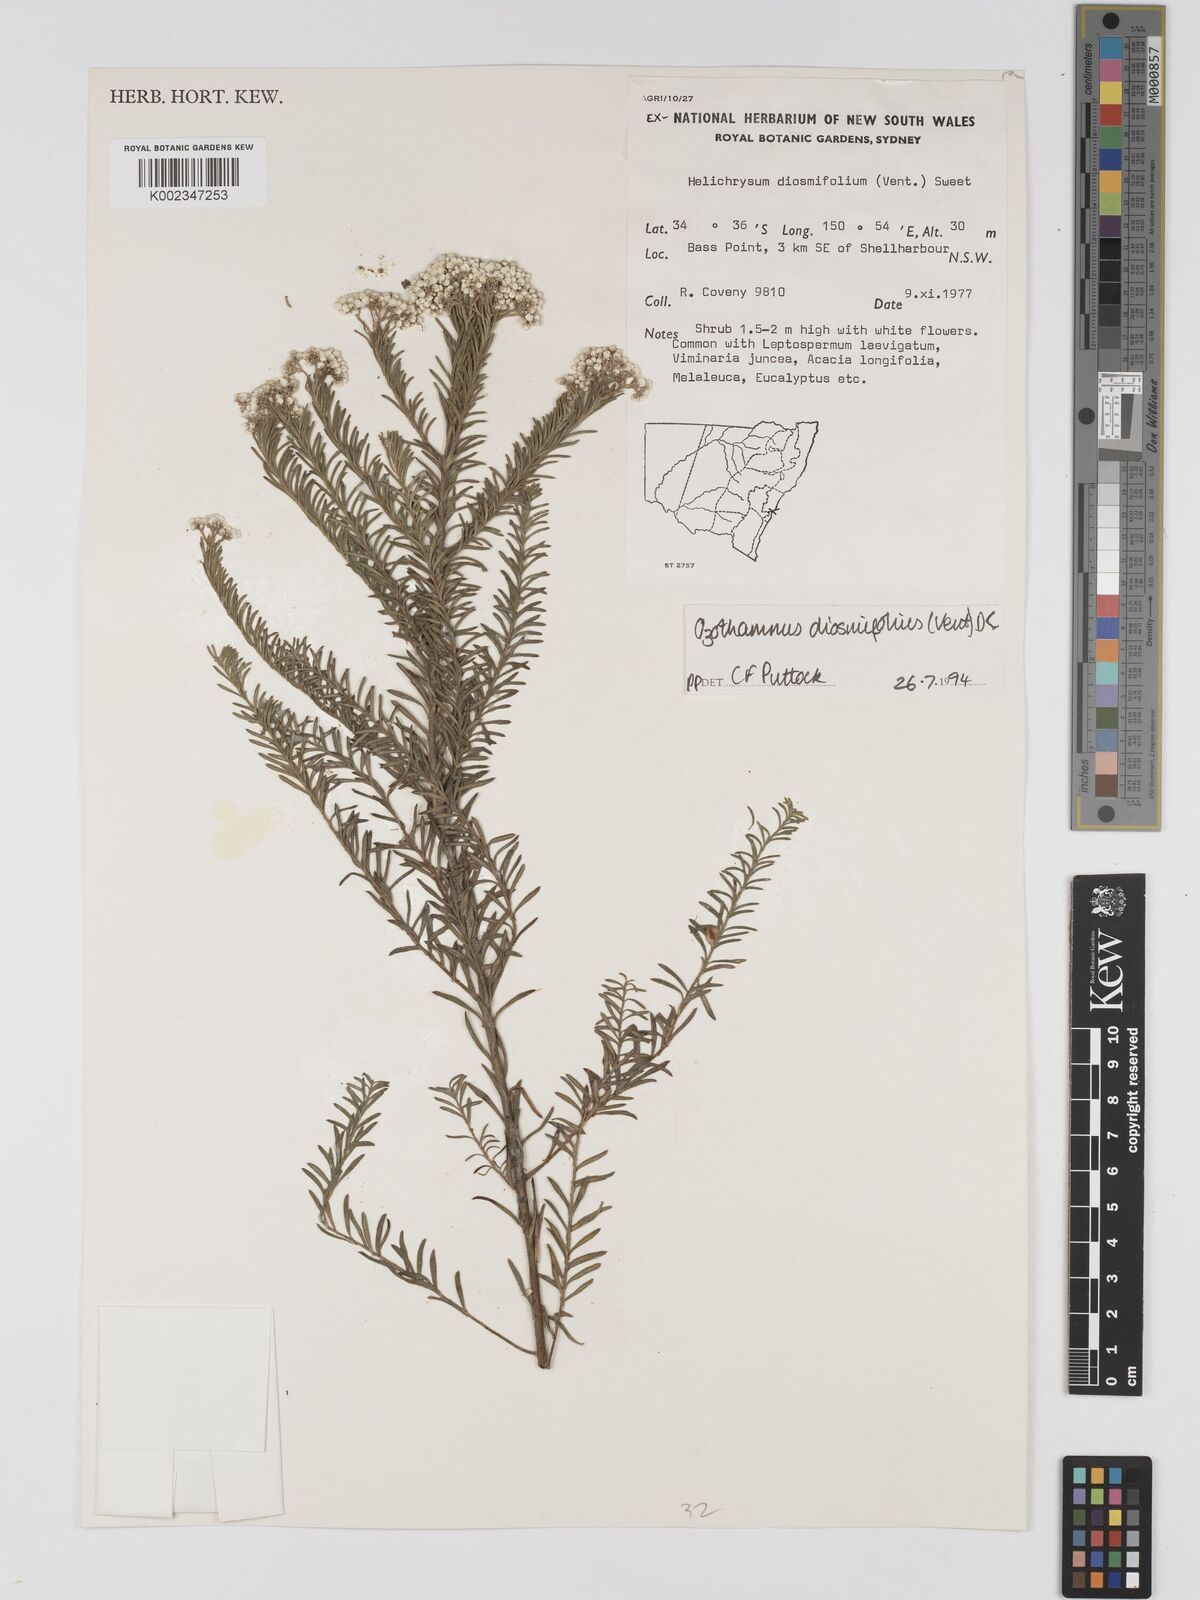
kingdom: Plantae
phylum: Tracheophyta
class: Magnoliopsida
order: Asterales
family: Asteraceae
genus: Ozothamnus
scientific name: Ozothamnus diosmifolius
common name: White-dogwood
